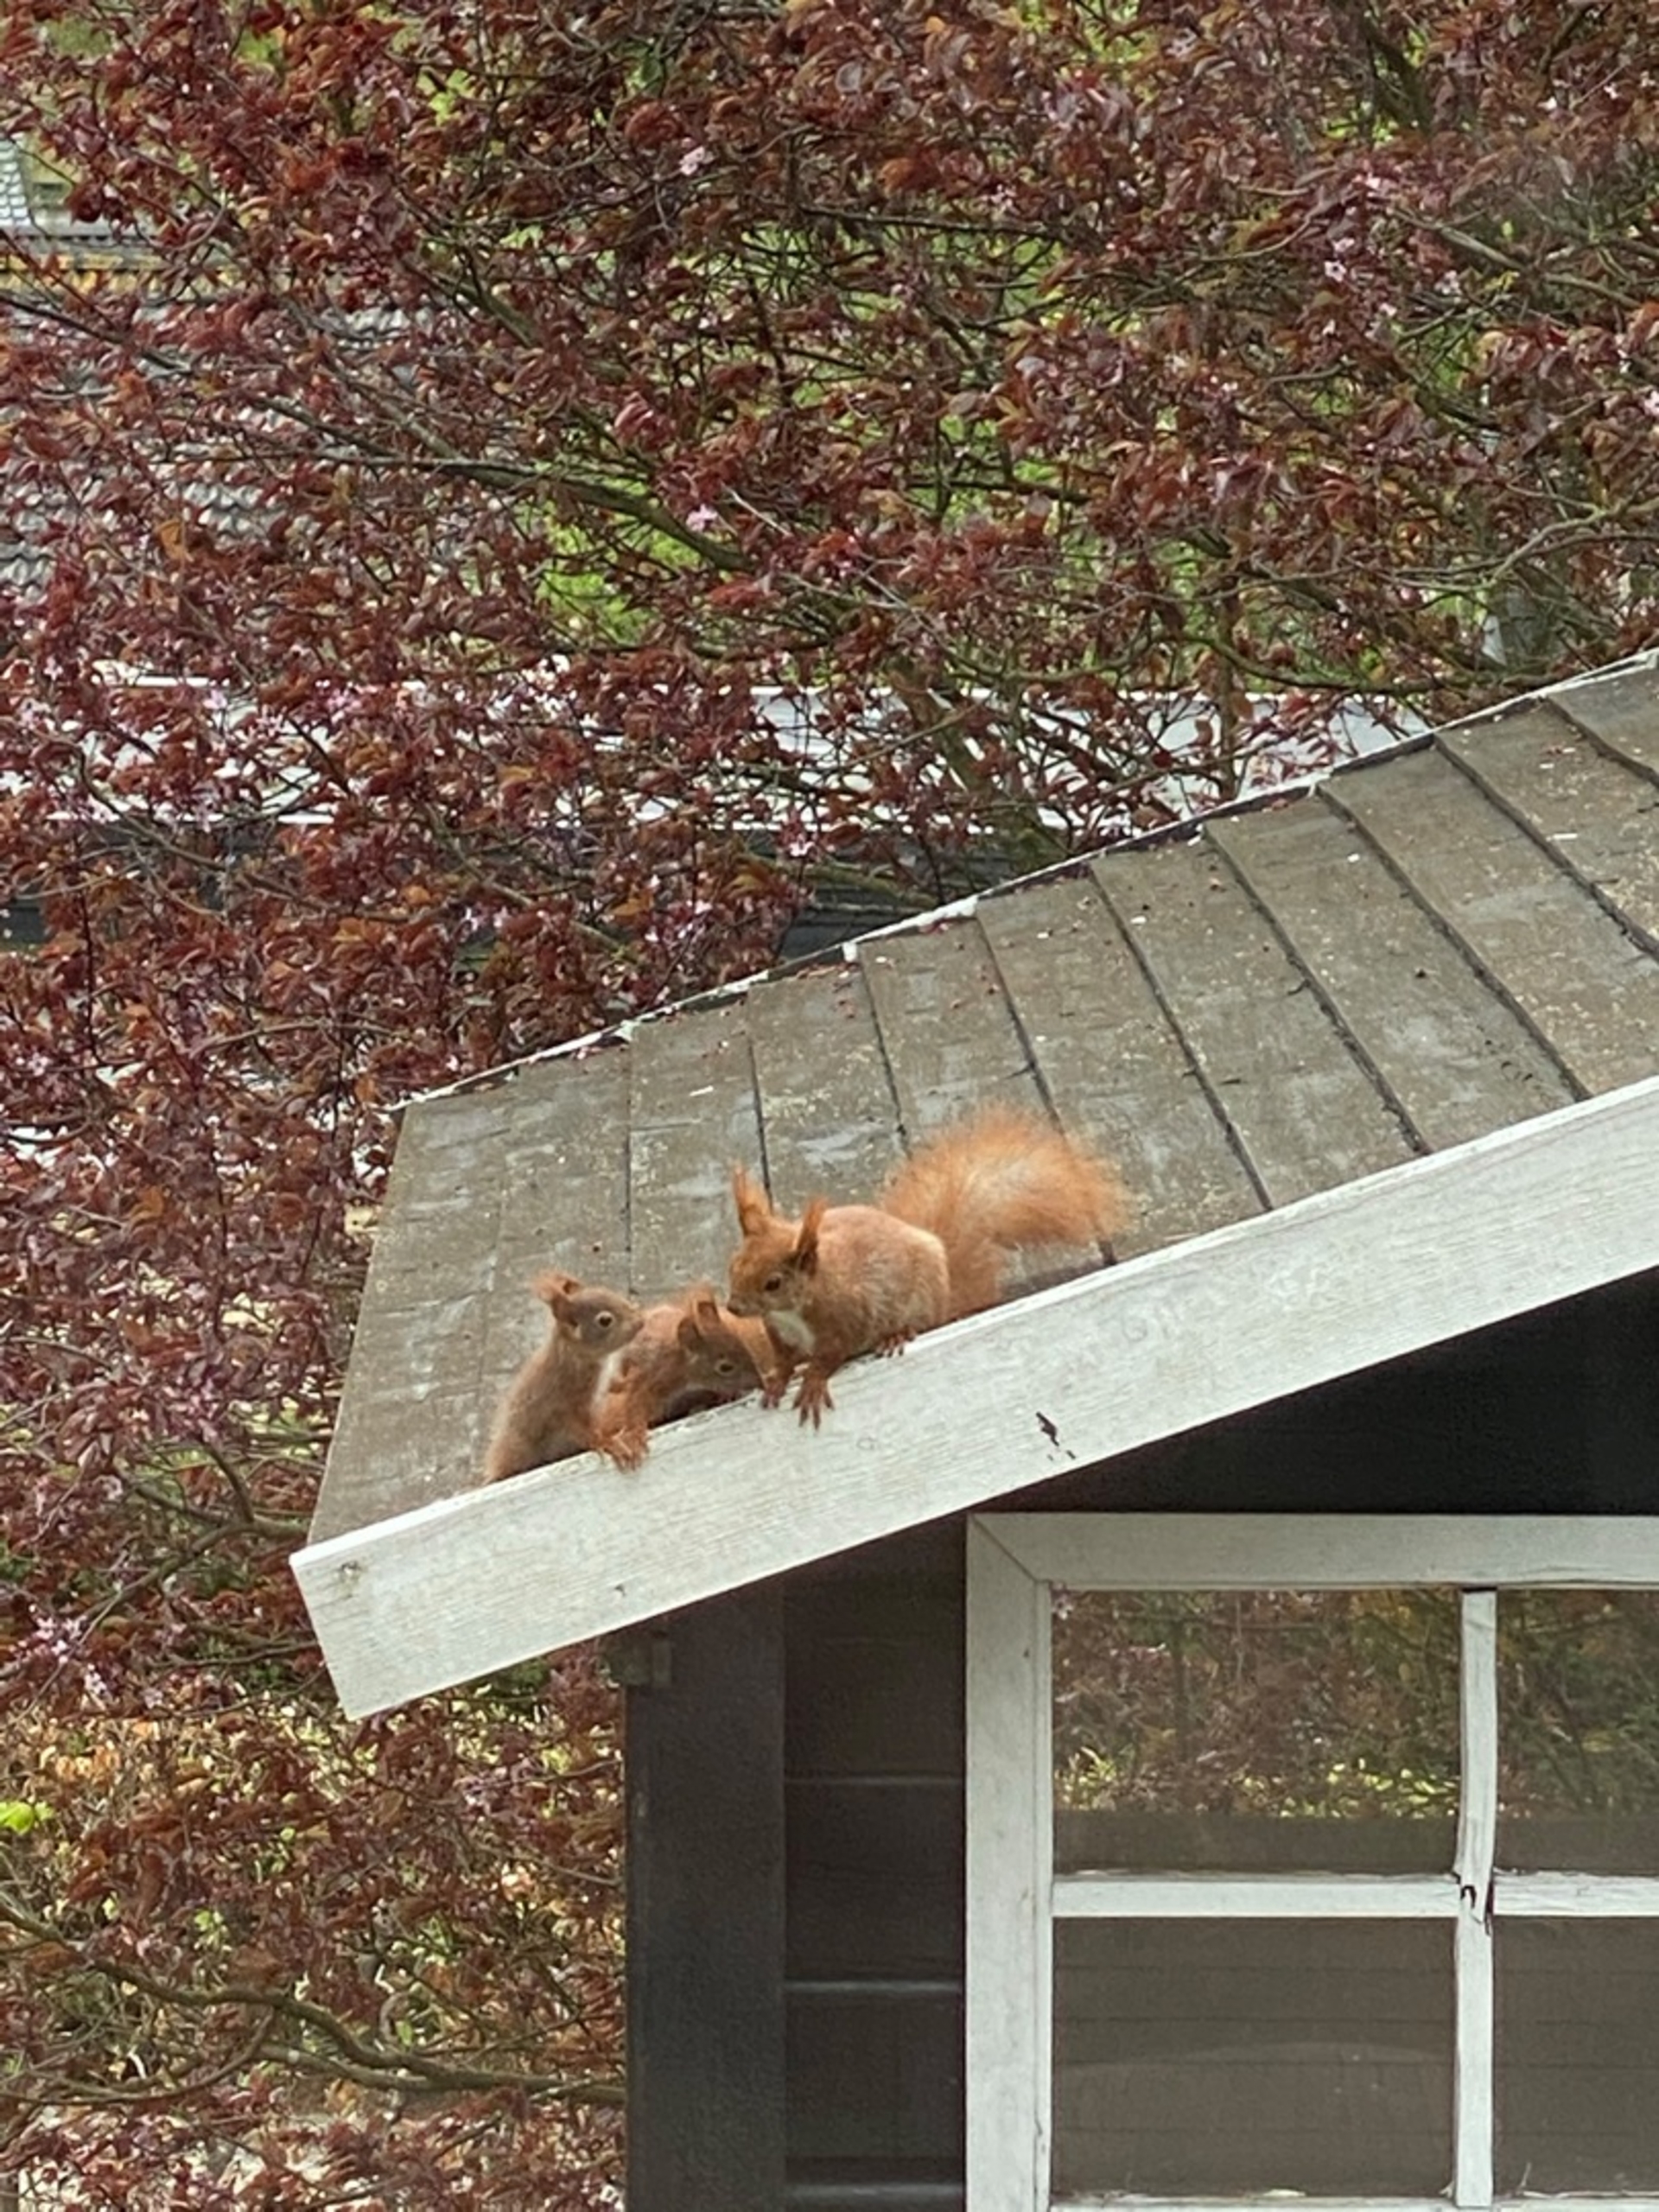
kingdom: Animalia
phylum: Chordata
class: Mammalia
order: Rodentia
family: Sciuridae
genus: Sciurus
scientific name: Sciurus vulgaris
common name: Egern
